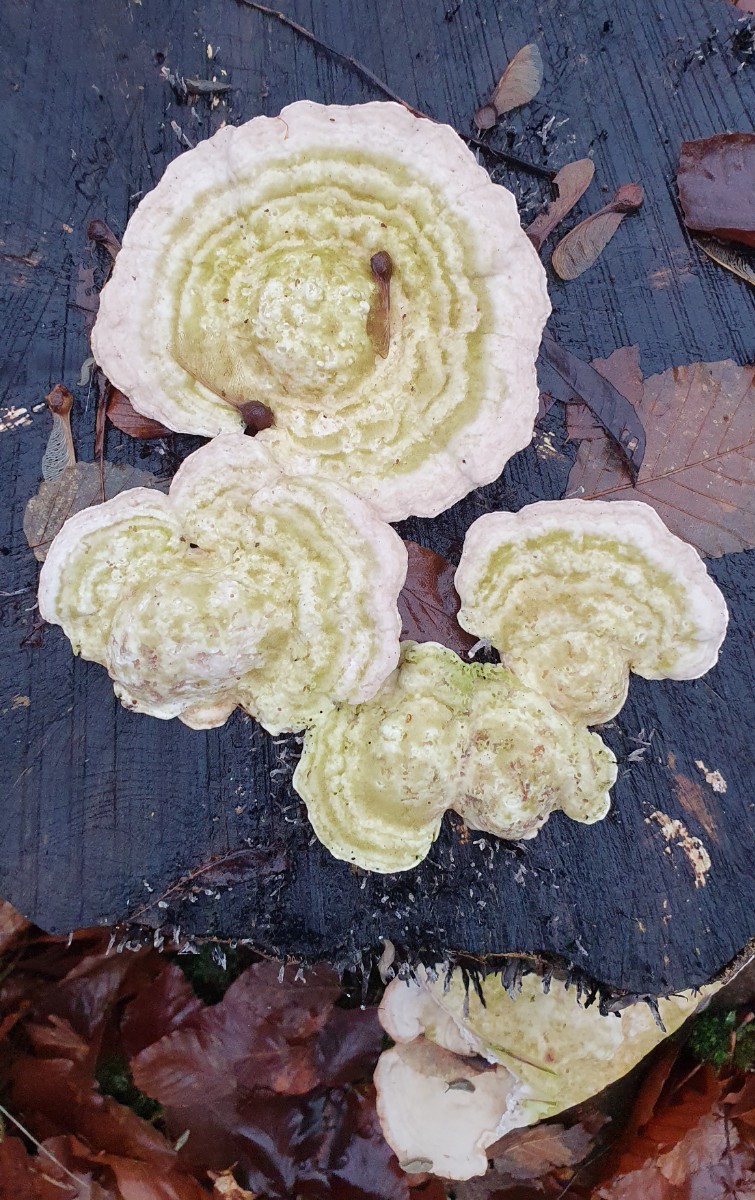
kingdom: Fungi
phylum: Basidiomycota
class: Agaricomycetes
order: Polyporales
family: Polyporaceae
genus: Trametes
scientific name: Trametes hirsuta
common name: håret læderporesvamp
